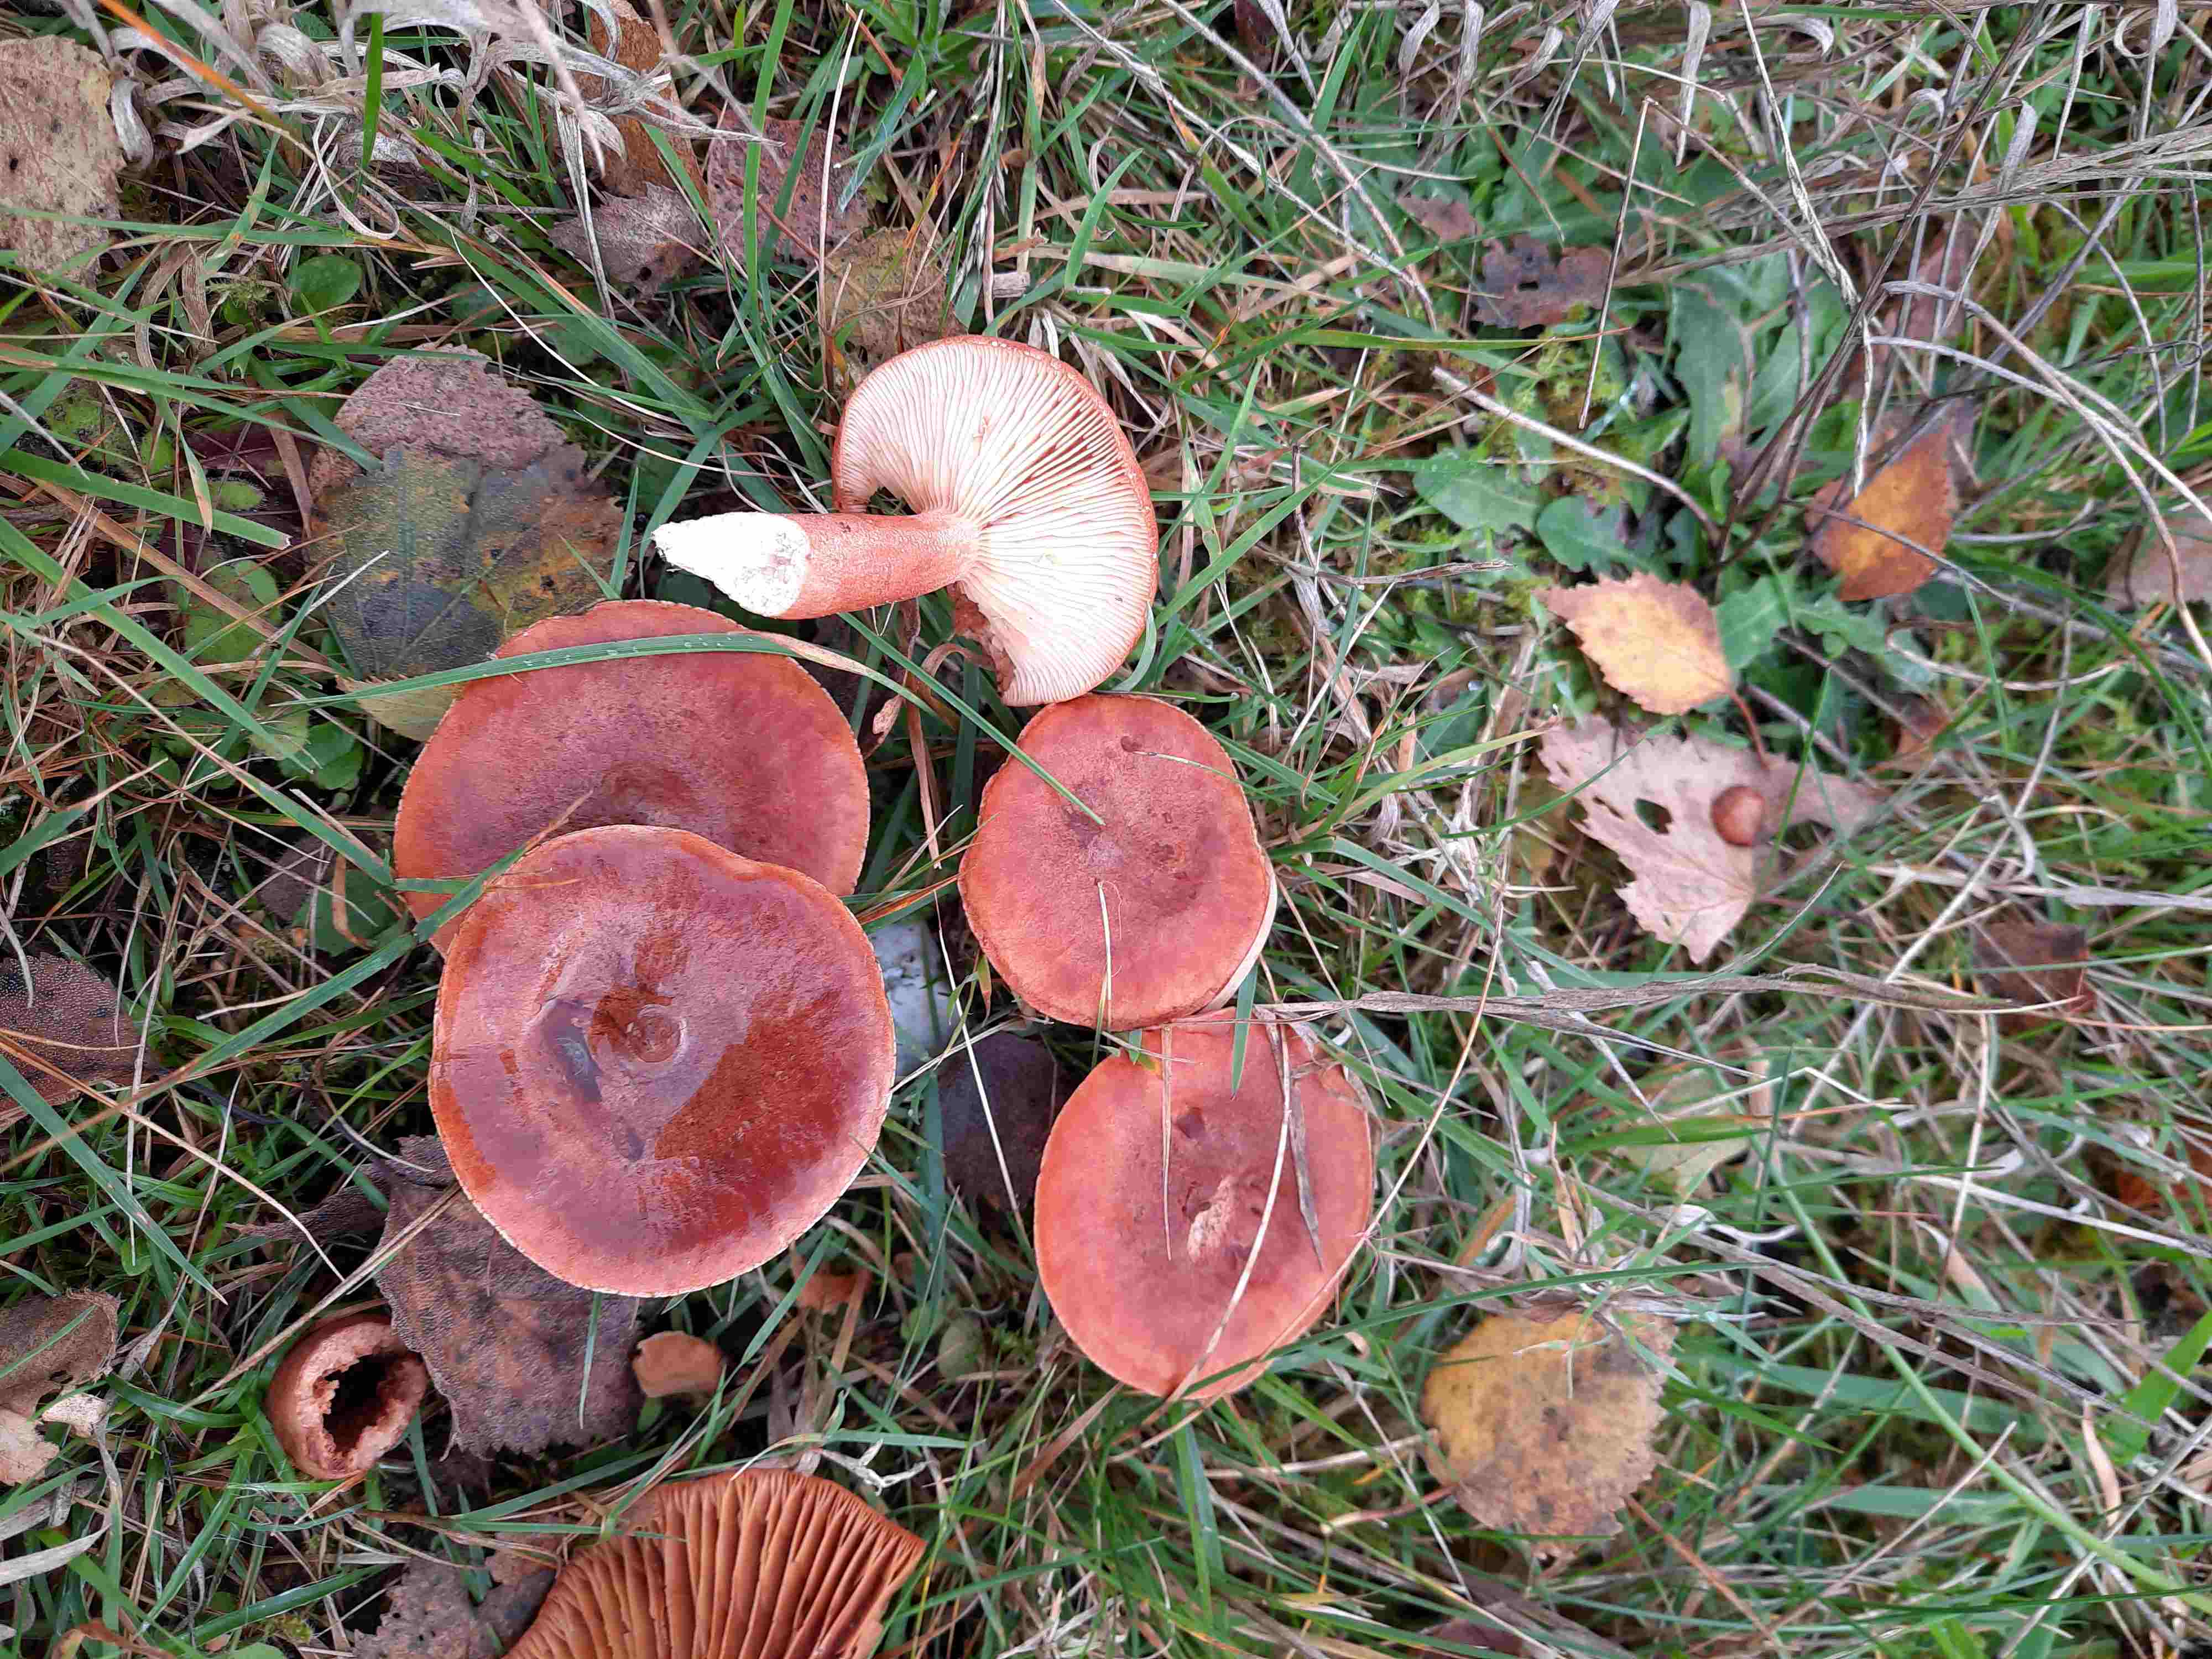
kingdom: Fungi
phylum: Basidiomycota
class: Agaricomycetes
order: Russulales
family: Russulaceae
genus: Lactarius
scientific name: Lactarius rufus
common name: rødbrun mælkehat
